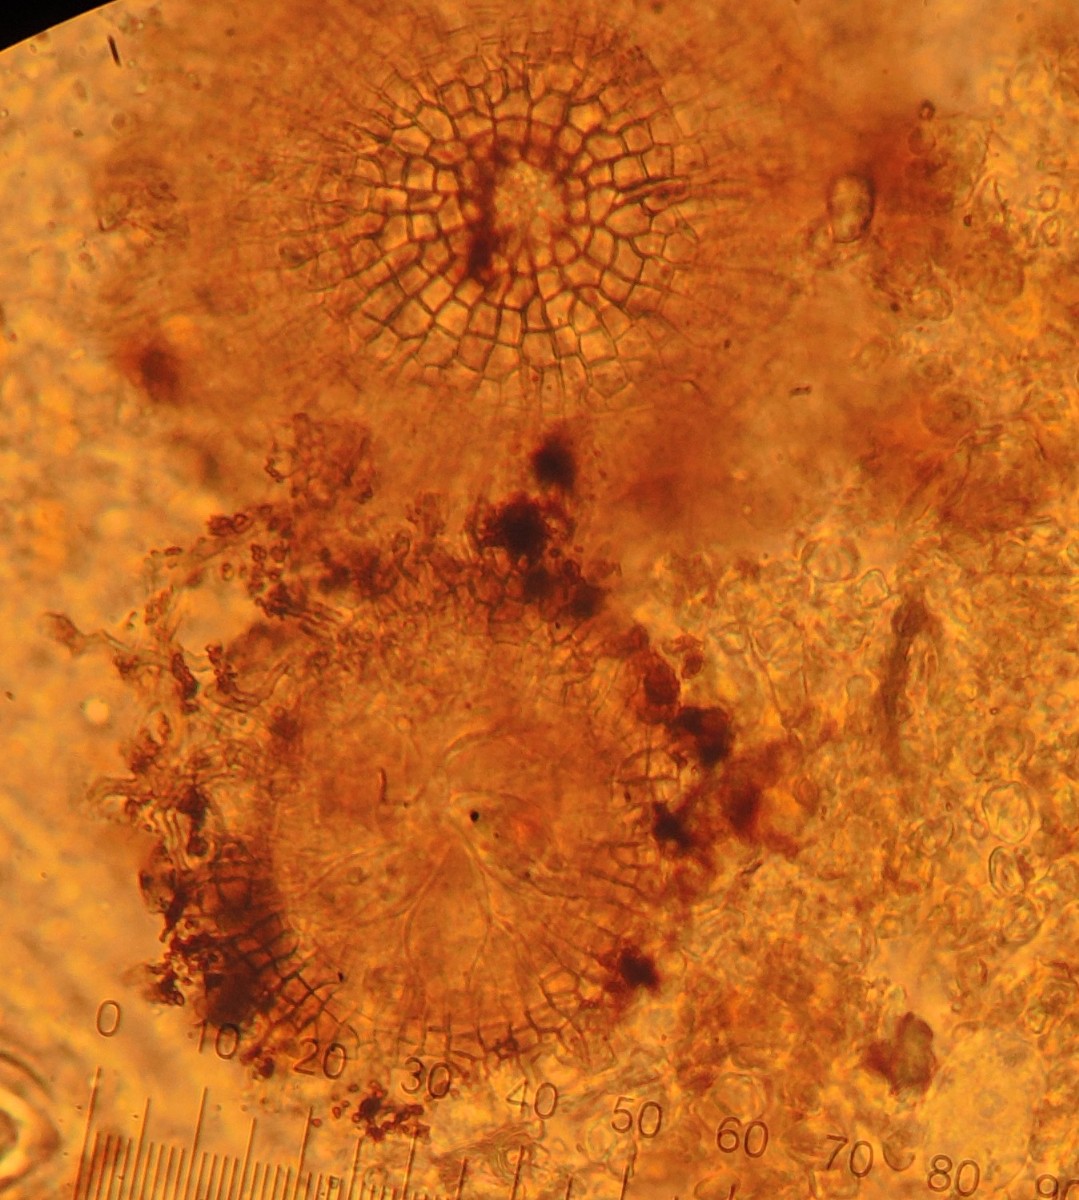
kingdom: Fungi
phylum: Ascomycota
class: Dothideomycetes
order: Microthyriales
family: Microthyriaceae
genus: Microthyrium
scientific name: Microthyrium ciliatum
